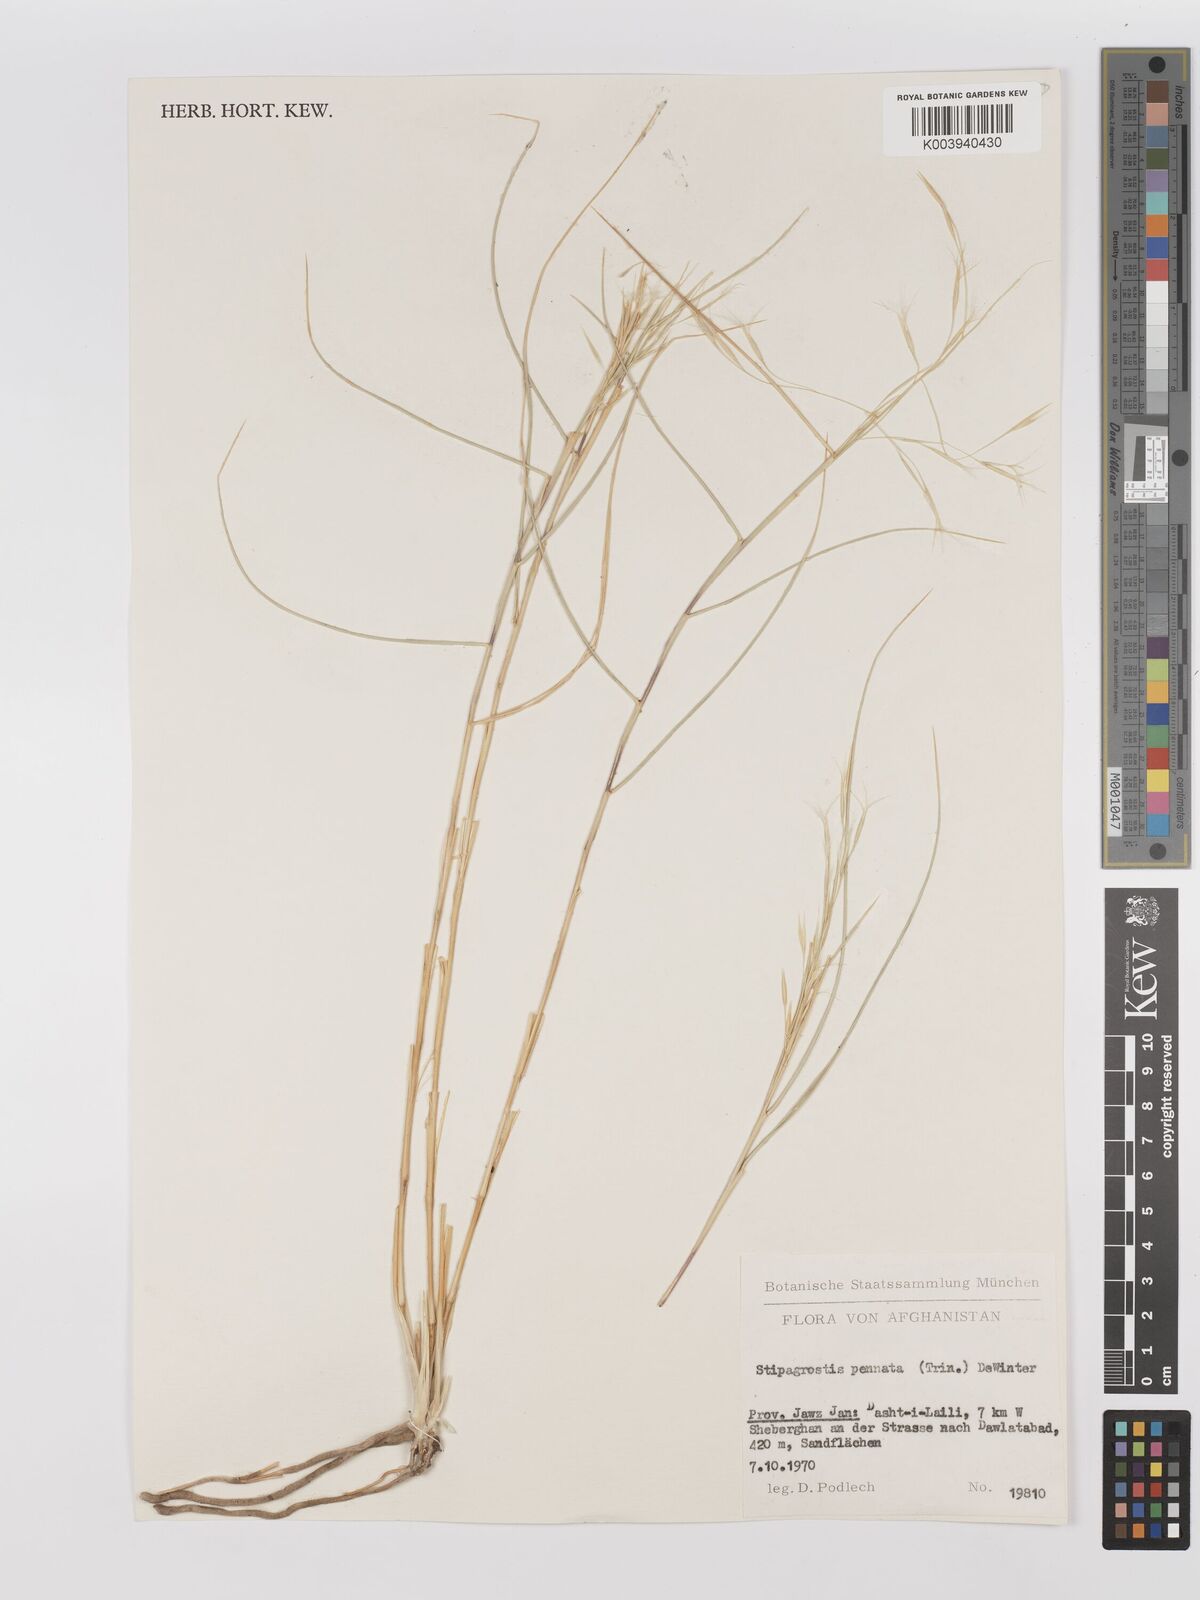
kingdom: Plantae
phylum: Tracheophyta
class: Liliopsida
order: Poales
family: Poaceae
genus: Stipagrostis
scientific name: Stipagrostis pennata
